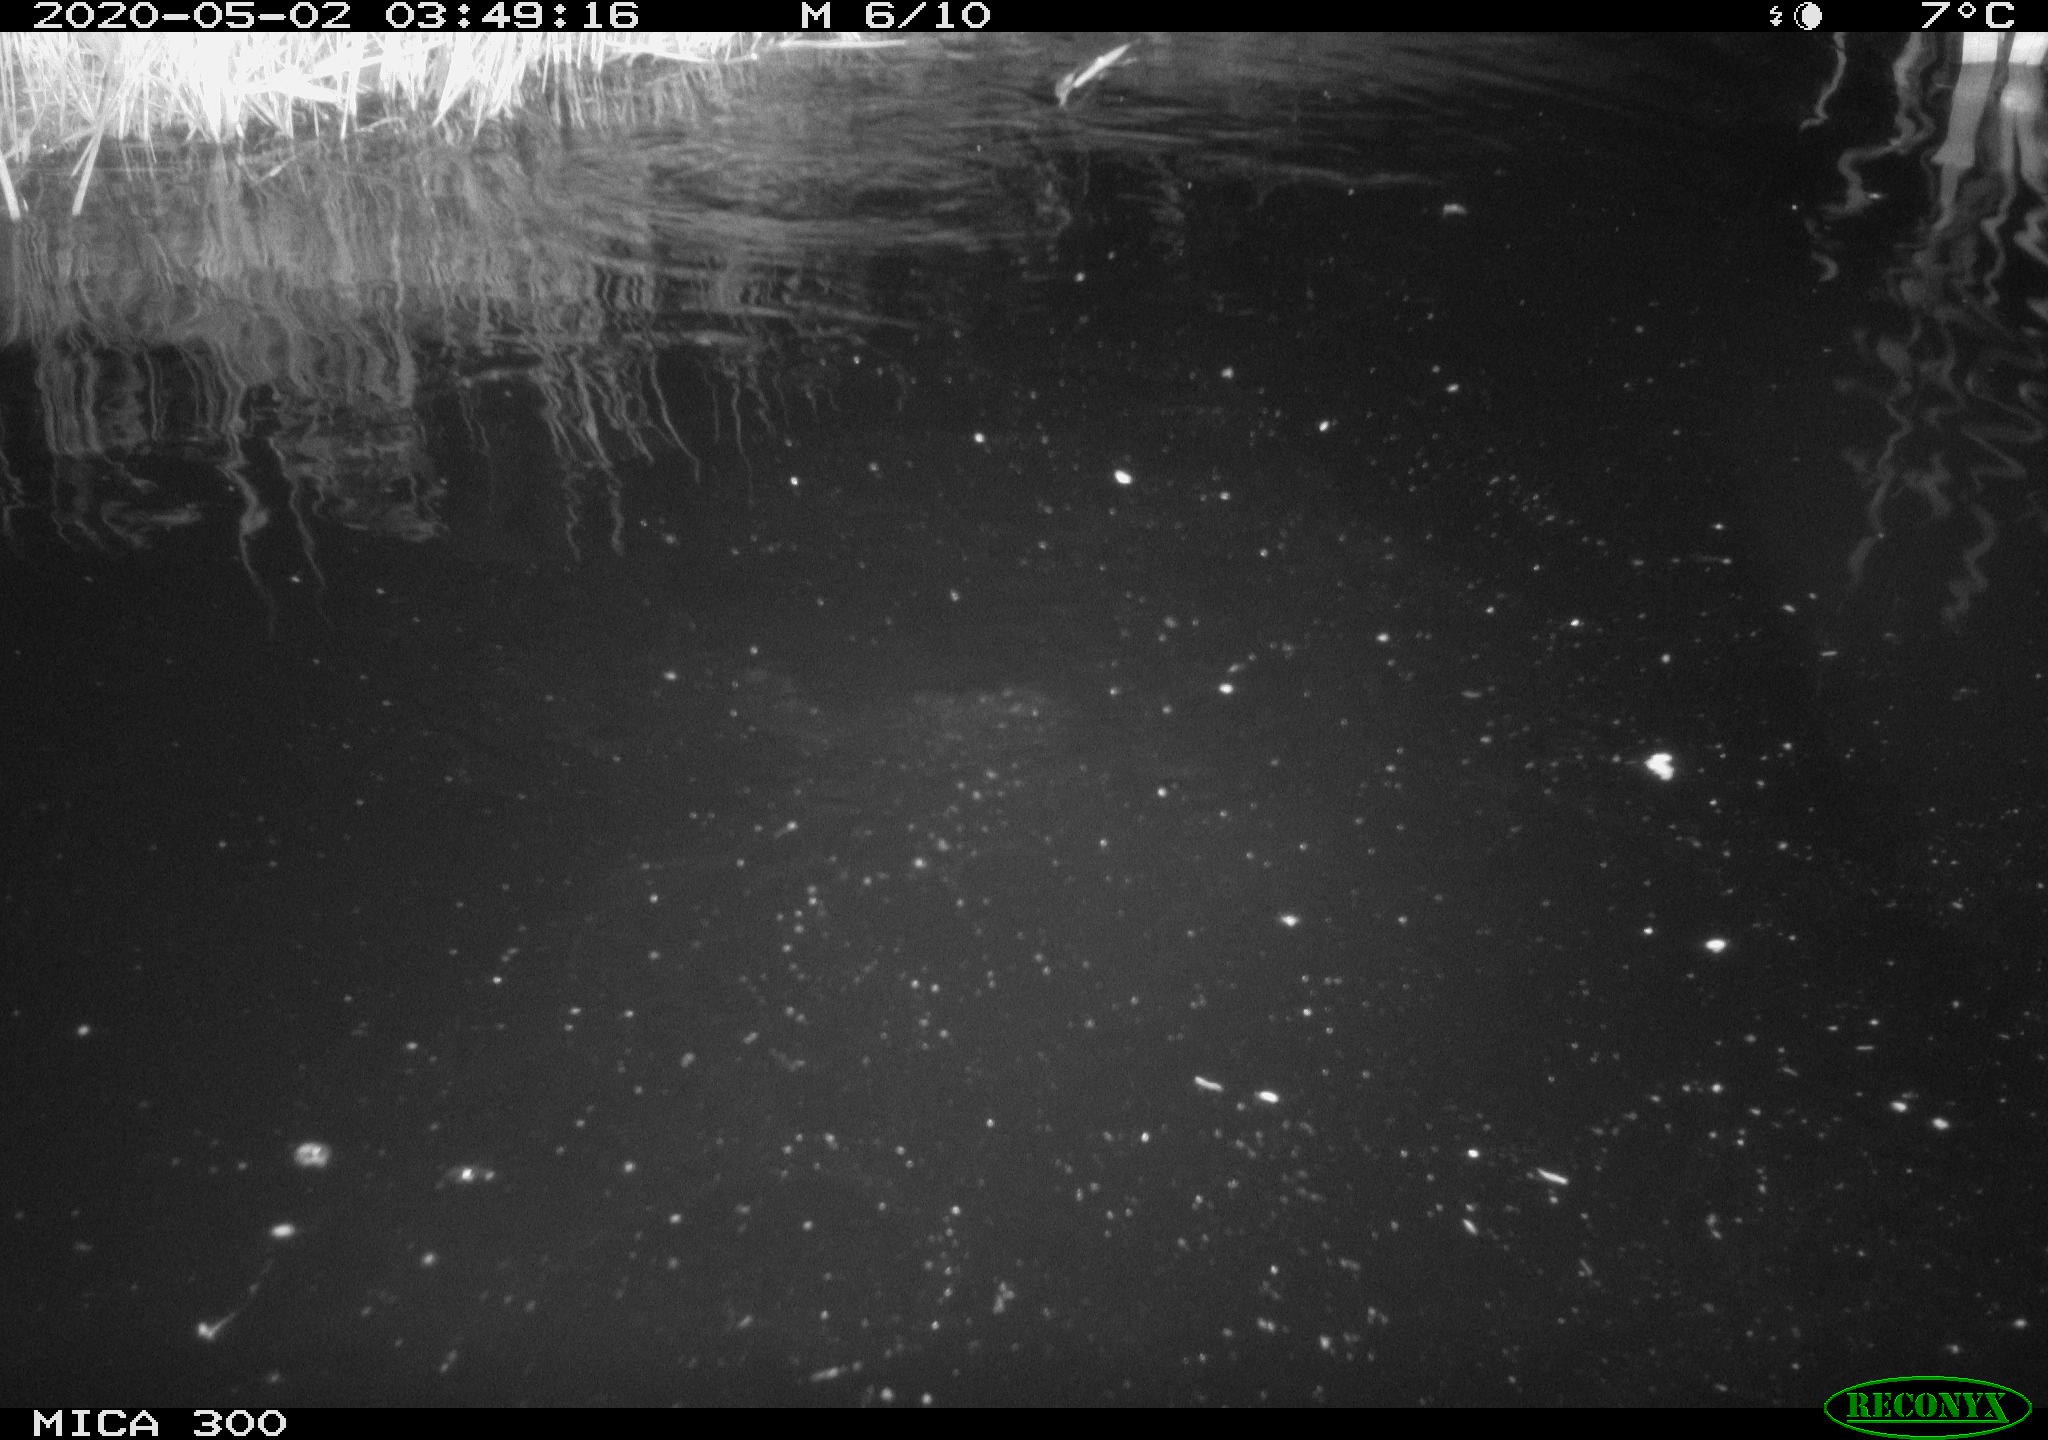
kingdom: Animalia
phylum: Chordata
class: Mammalia
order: Rodentia
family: Castoridae
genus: Castor
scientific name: Castor fiber
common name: Eurasian beaver
